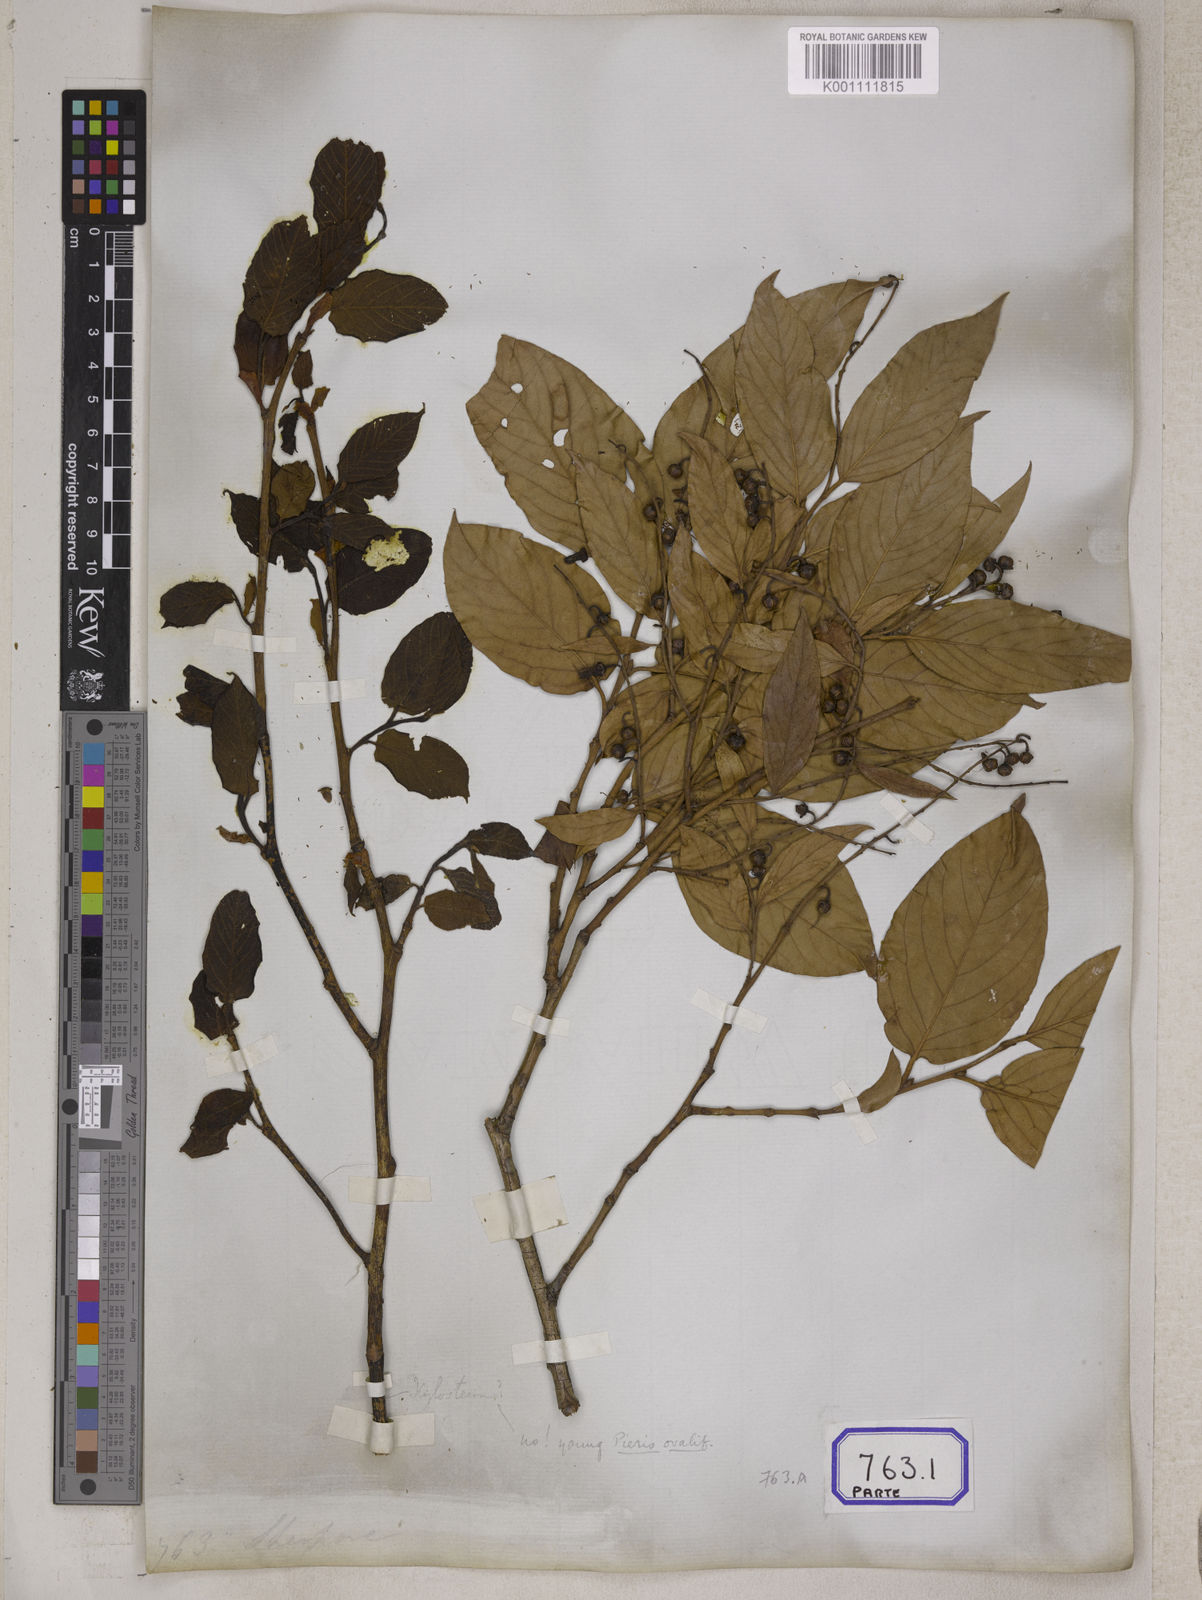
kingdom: Plantae
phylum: Tracheophyta
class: Magnoliopsida
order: Ericales
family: Ericaceae
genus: Lyonia
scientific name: Lyonia ovalifolia
